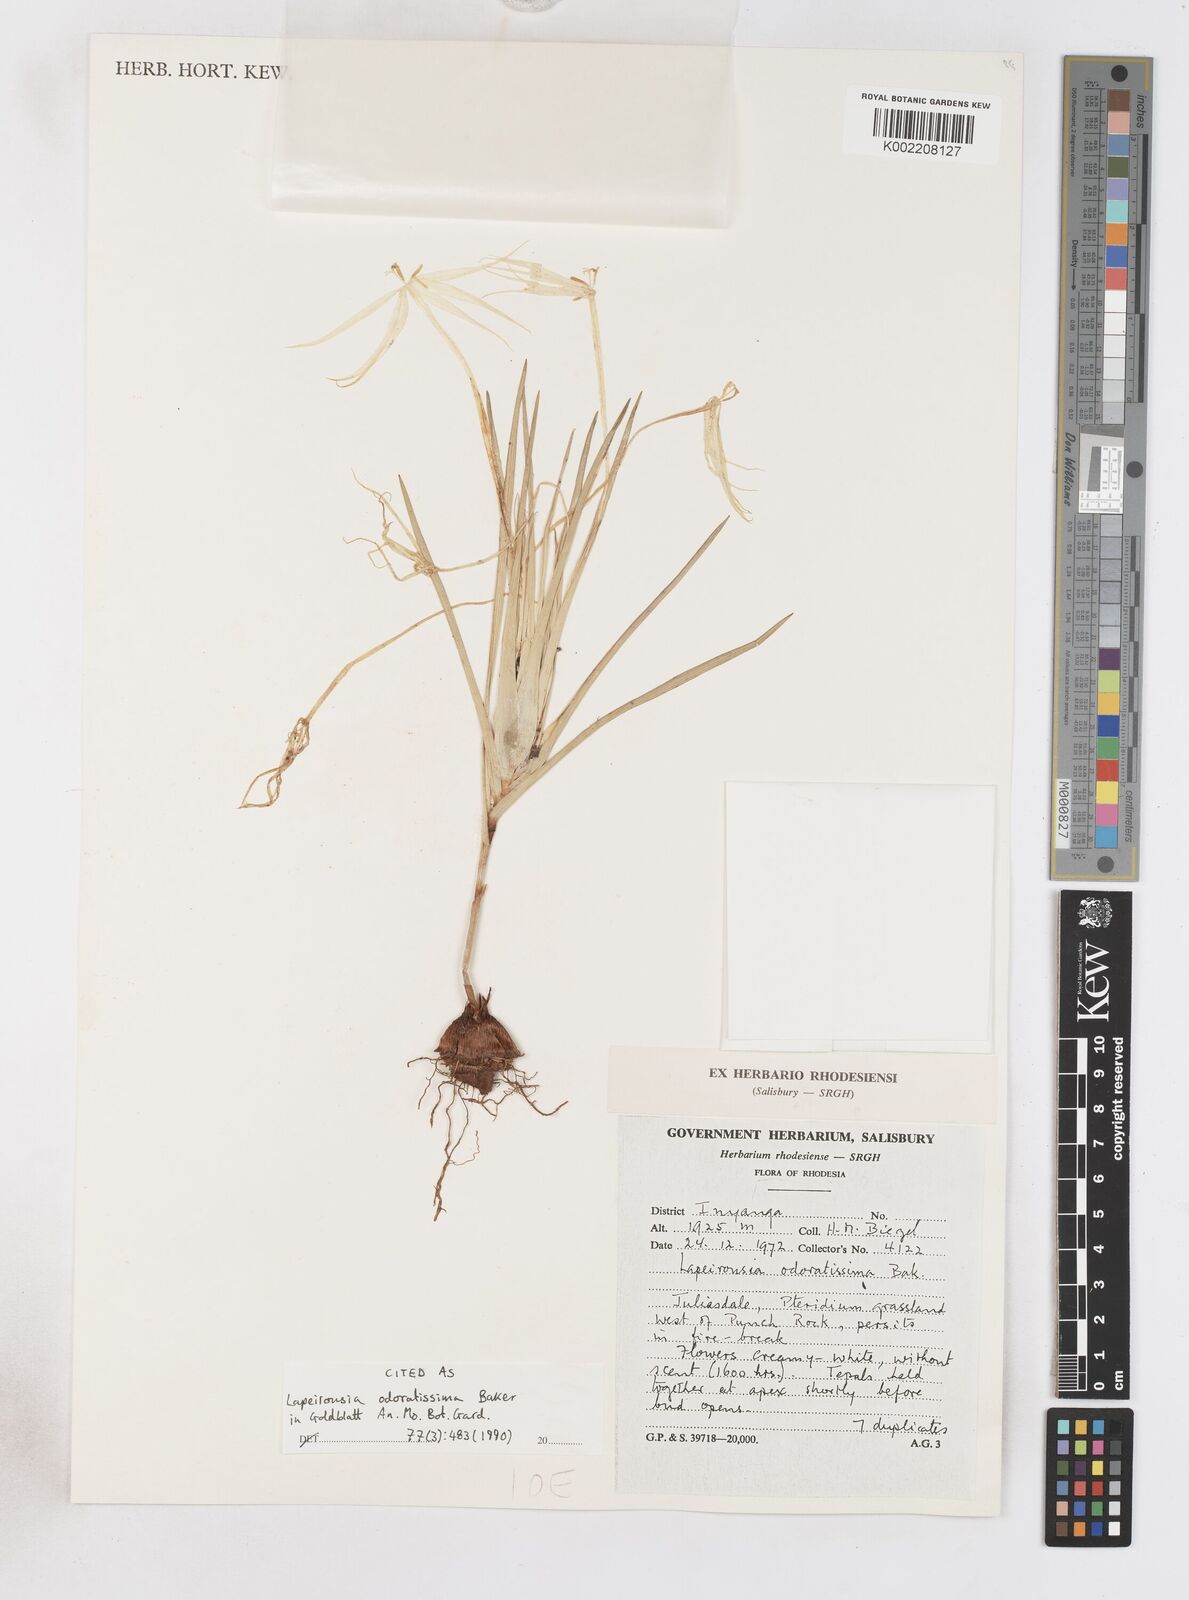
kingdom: Plantae
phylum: Tracheophyta
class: Liliopsida
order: Asparagales
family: Iridaceae
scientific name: Iridaceae
